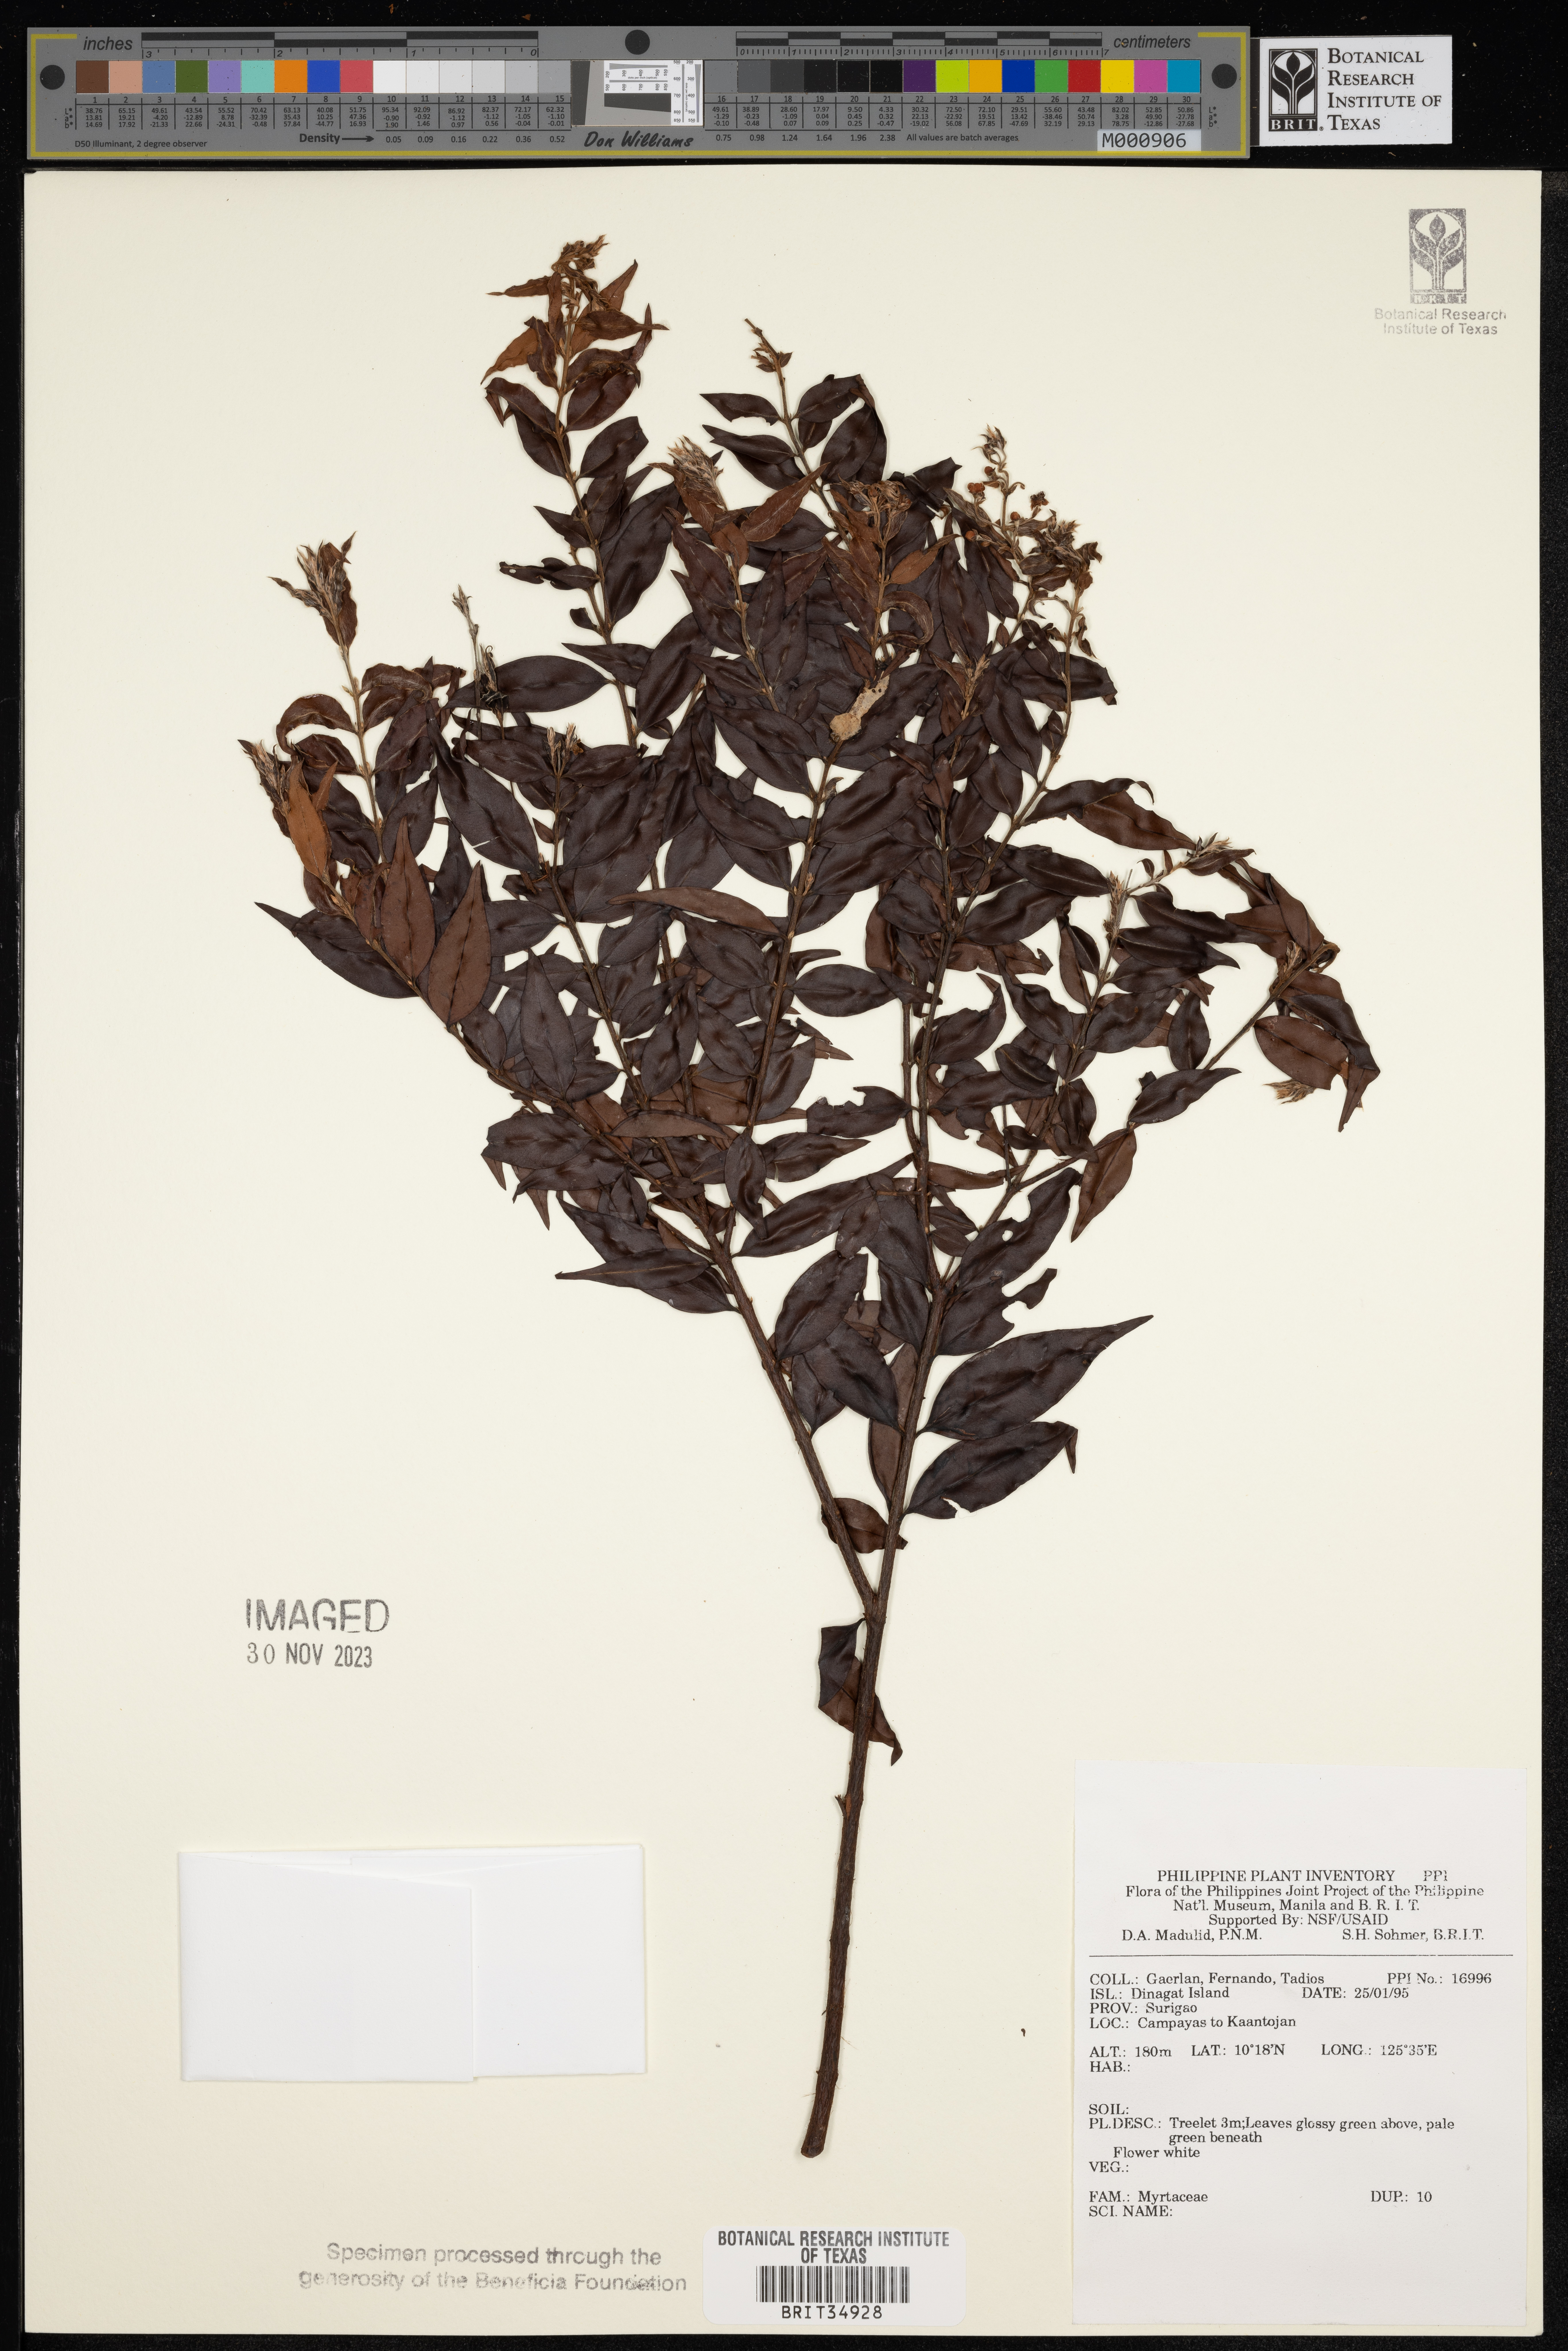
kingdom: Plantae
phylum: Tracheophyta
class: Magnoliopsida
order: Myrtales
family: Myrtaceae
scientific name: Myrtaceae
